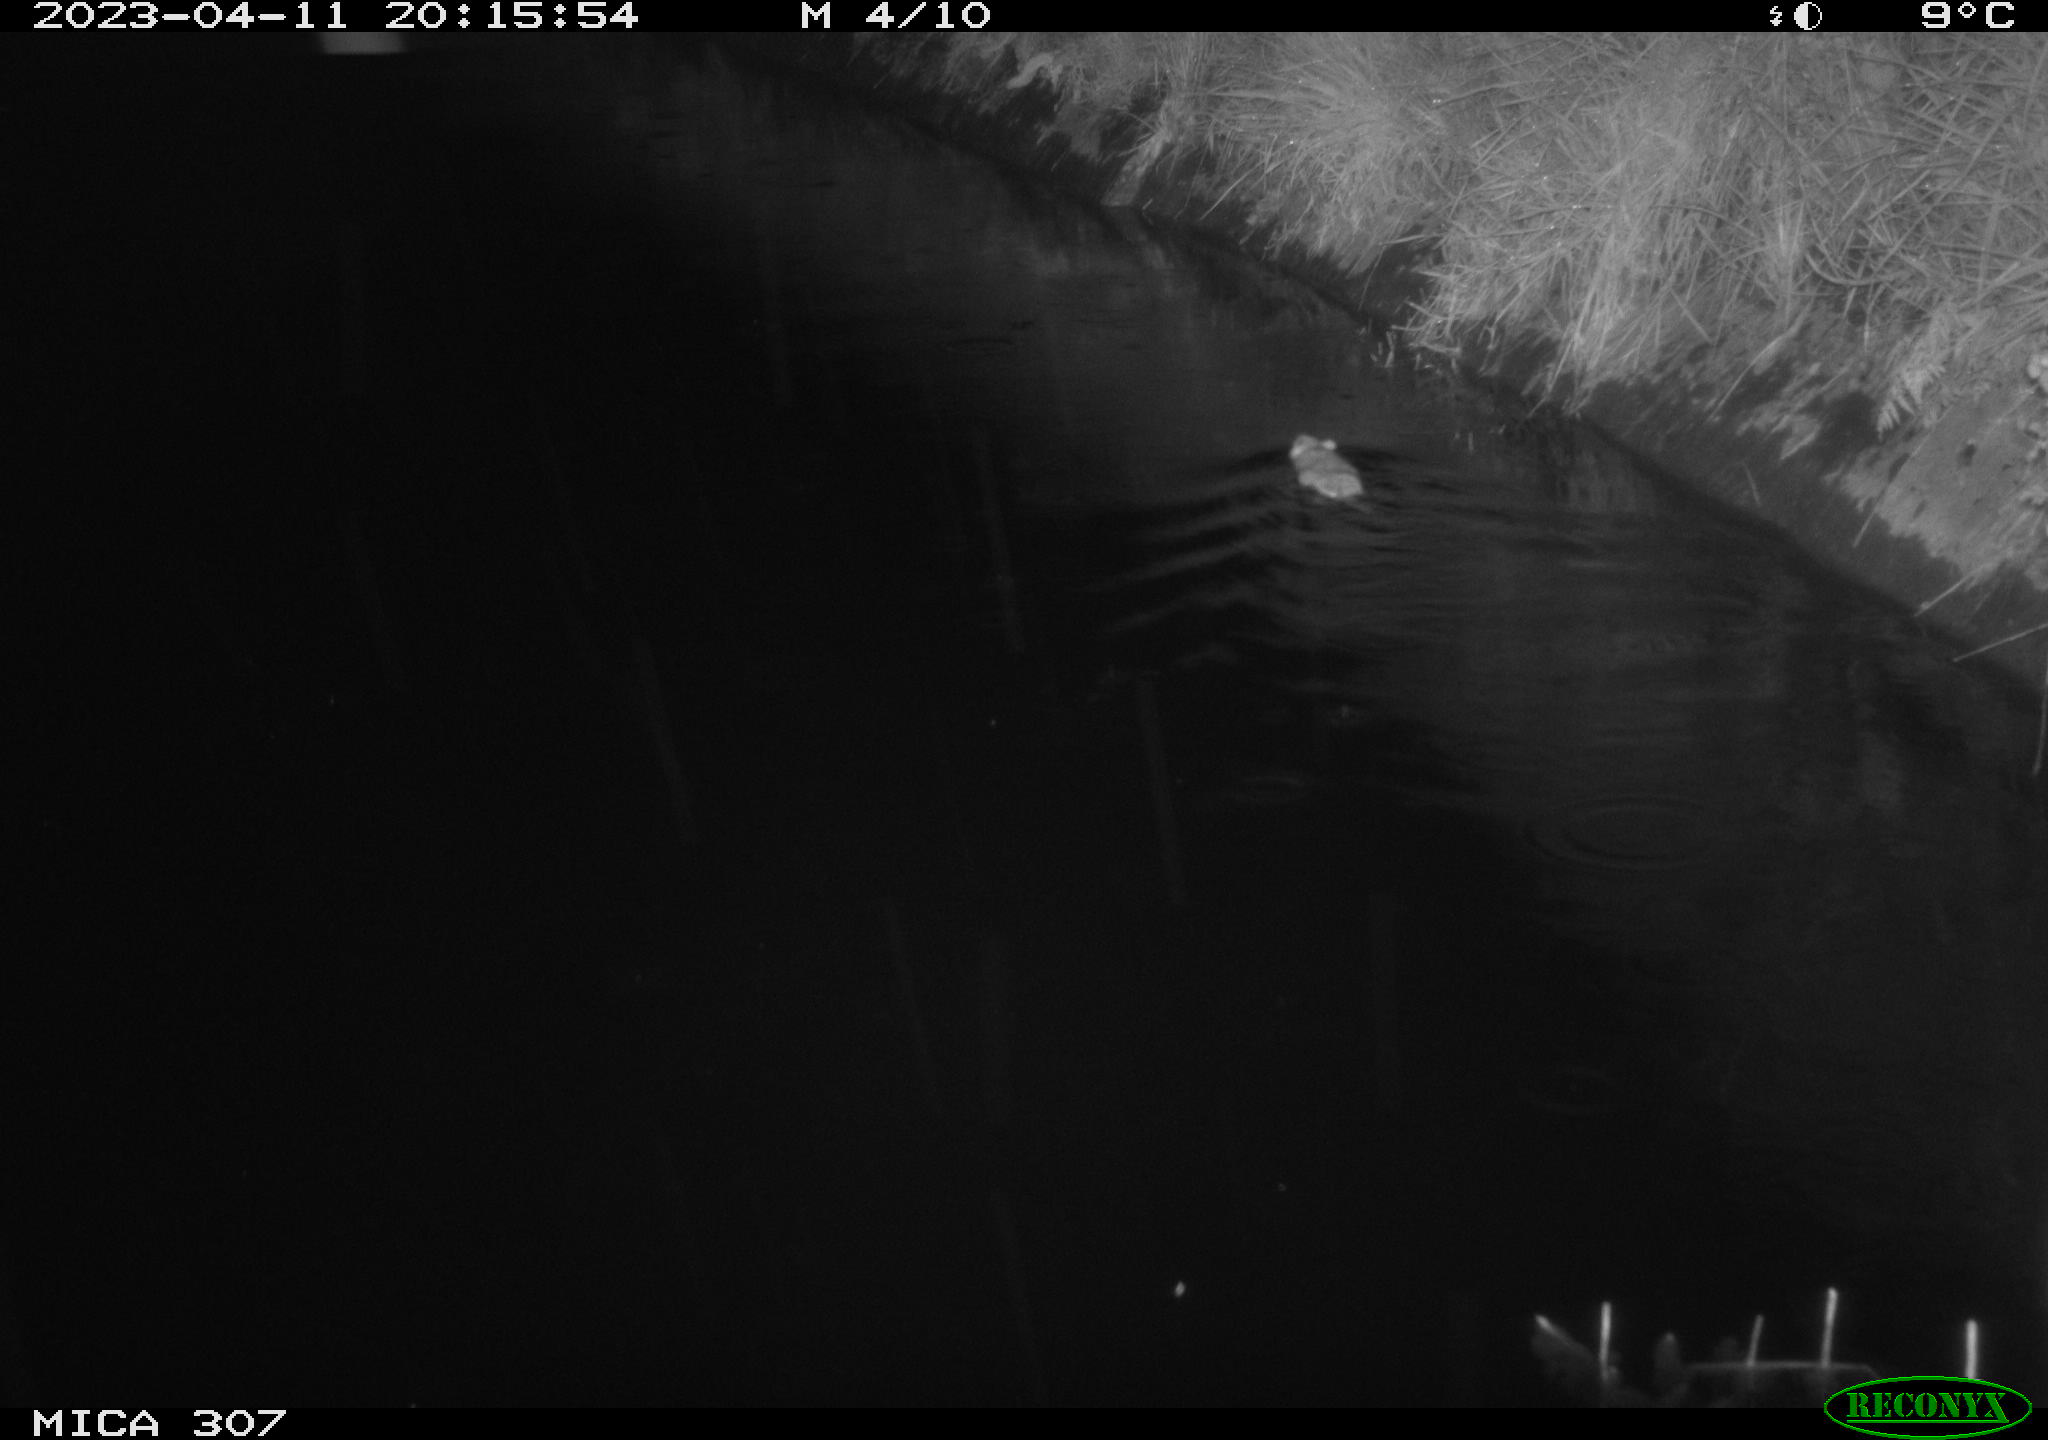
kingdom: Animalia
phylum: Chordata
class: Mammalia
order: Rodentia
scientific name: Rodentia
